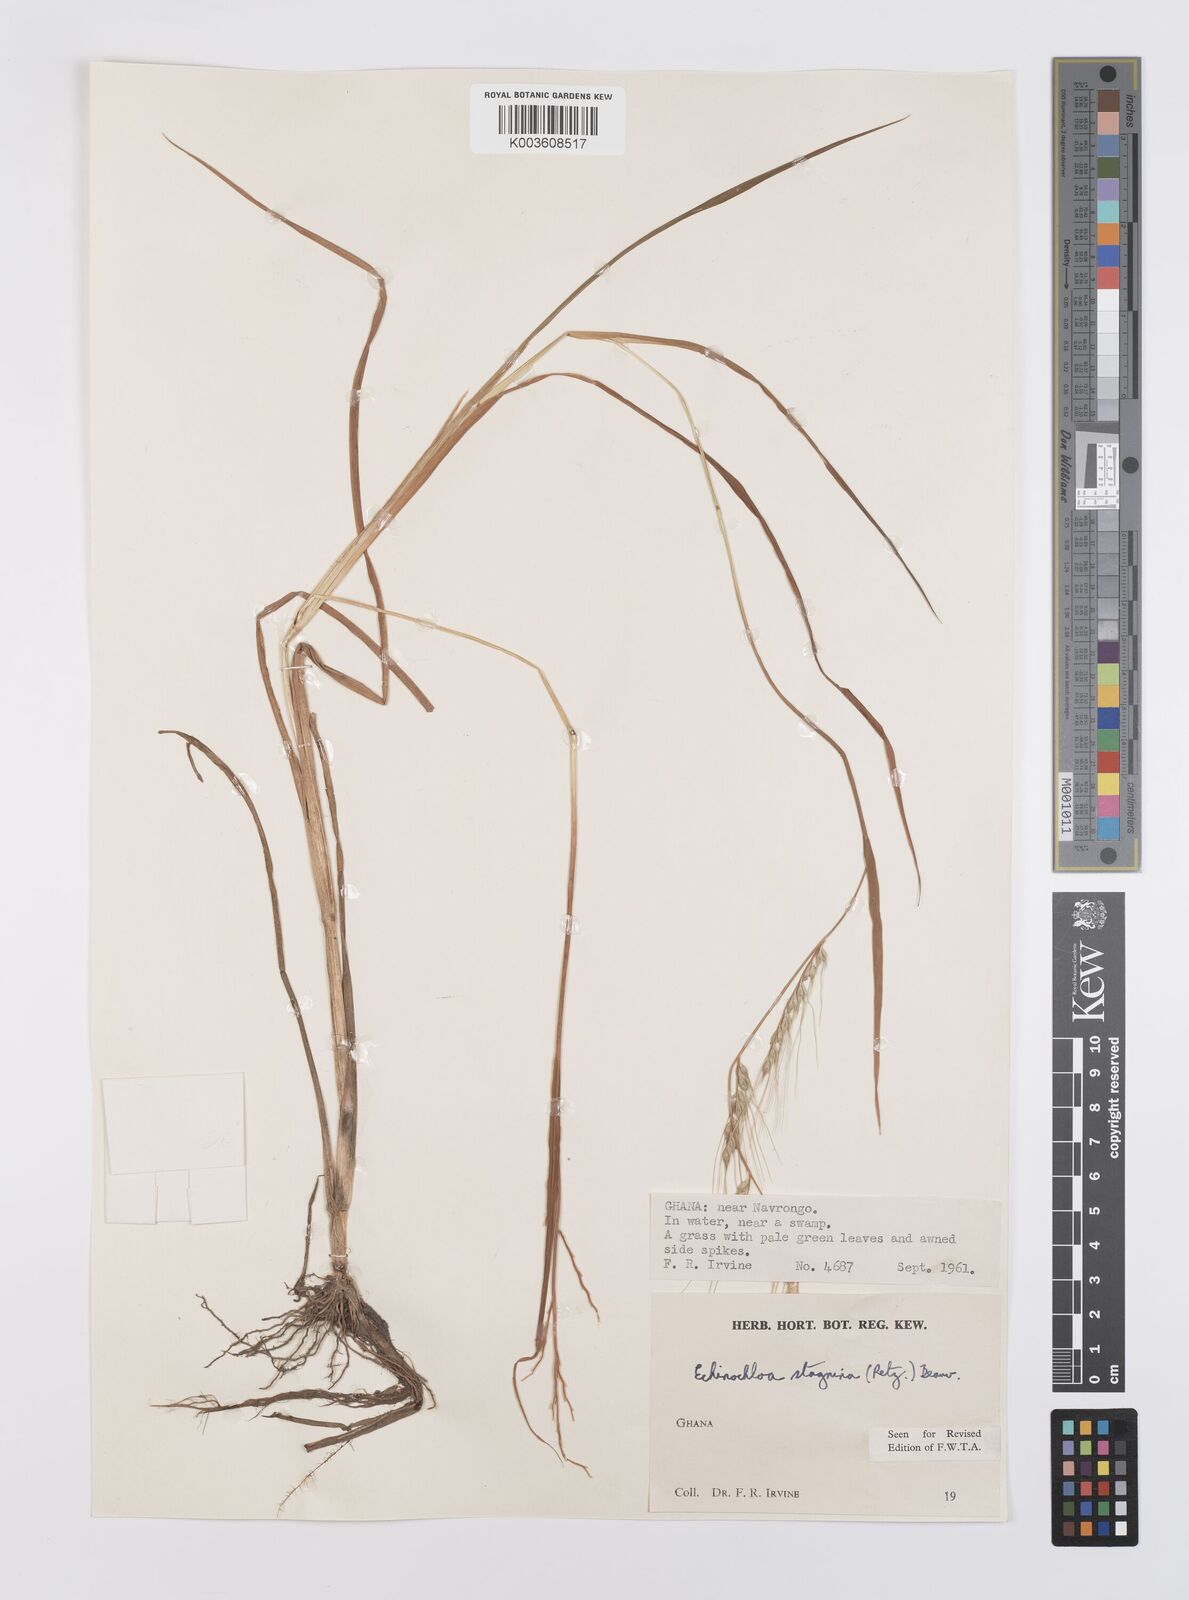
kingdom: Plantae
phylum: Tracheophyta
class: Liliopsida
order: Poales
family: Poaceae
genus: Echinochloa
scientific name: Echinochloa stagnina
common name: Burgu grass
